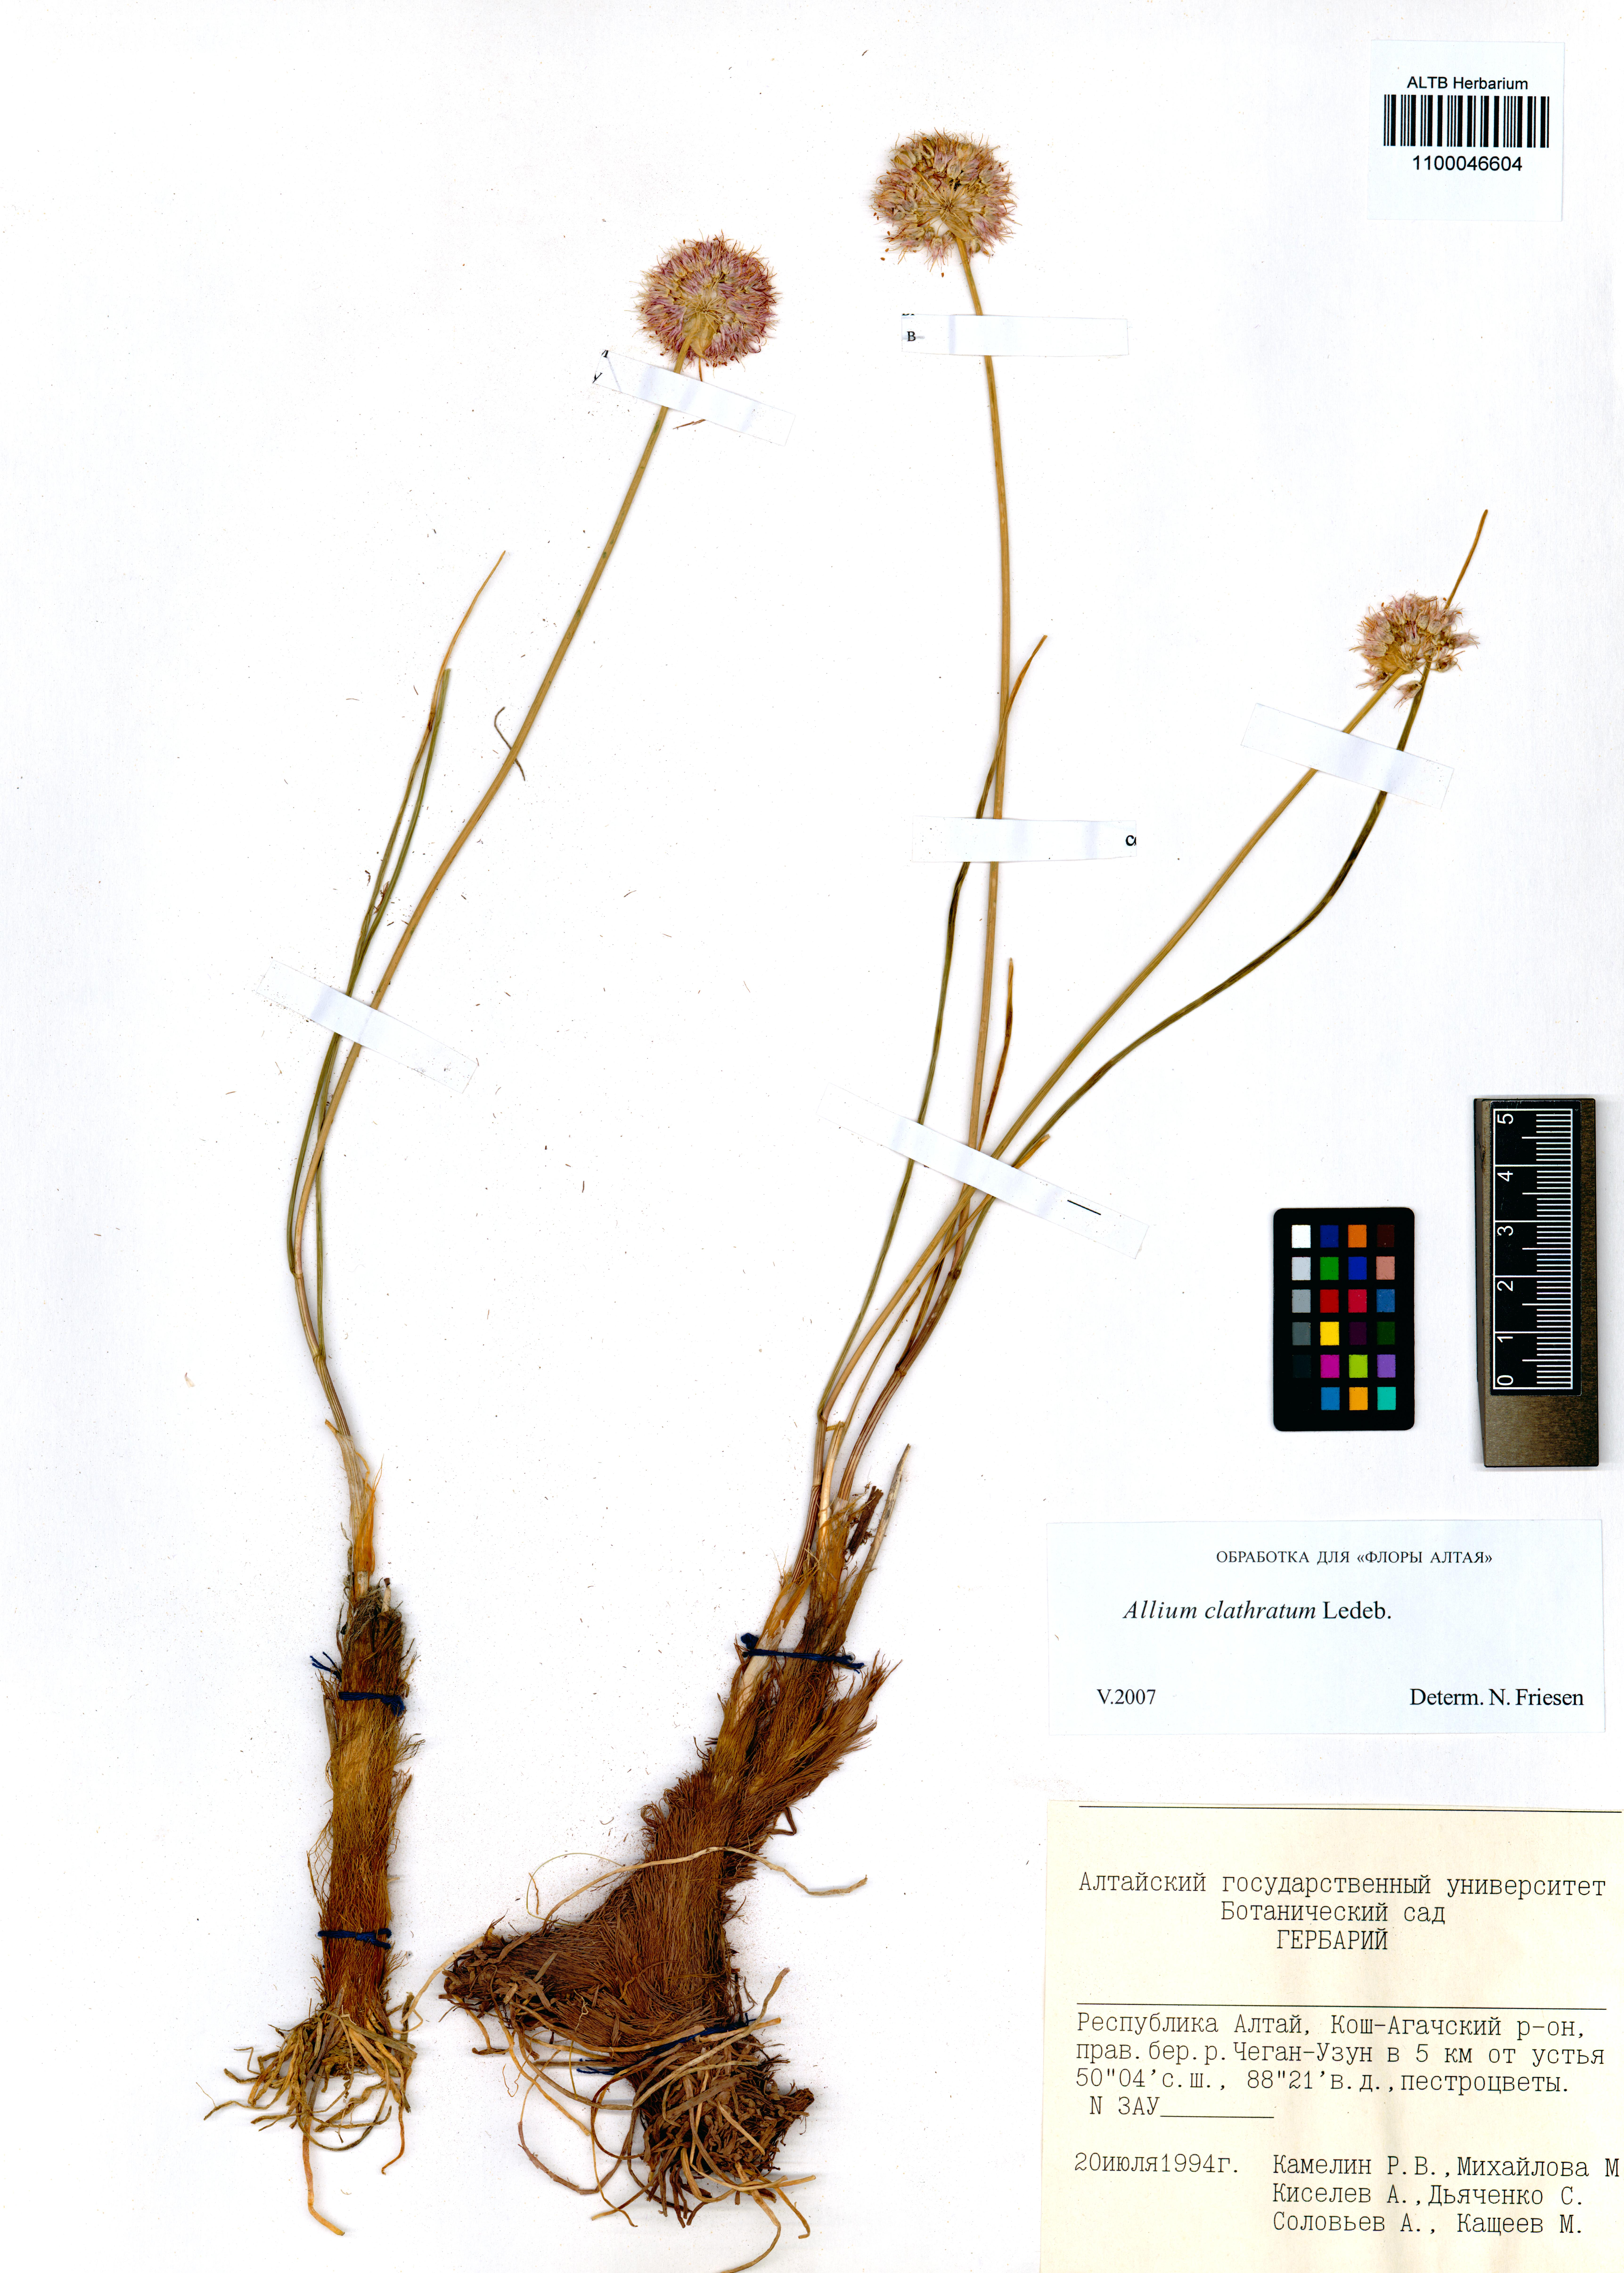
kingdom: Plantae
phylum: Tracheophyta
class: Liliopsida
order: Asparagales
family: Amaryllidaceae
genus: Allium
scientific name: Allium clathratum
